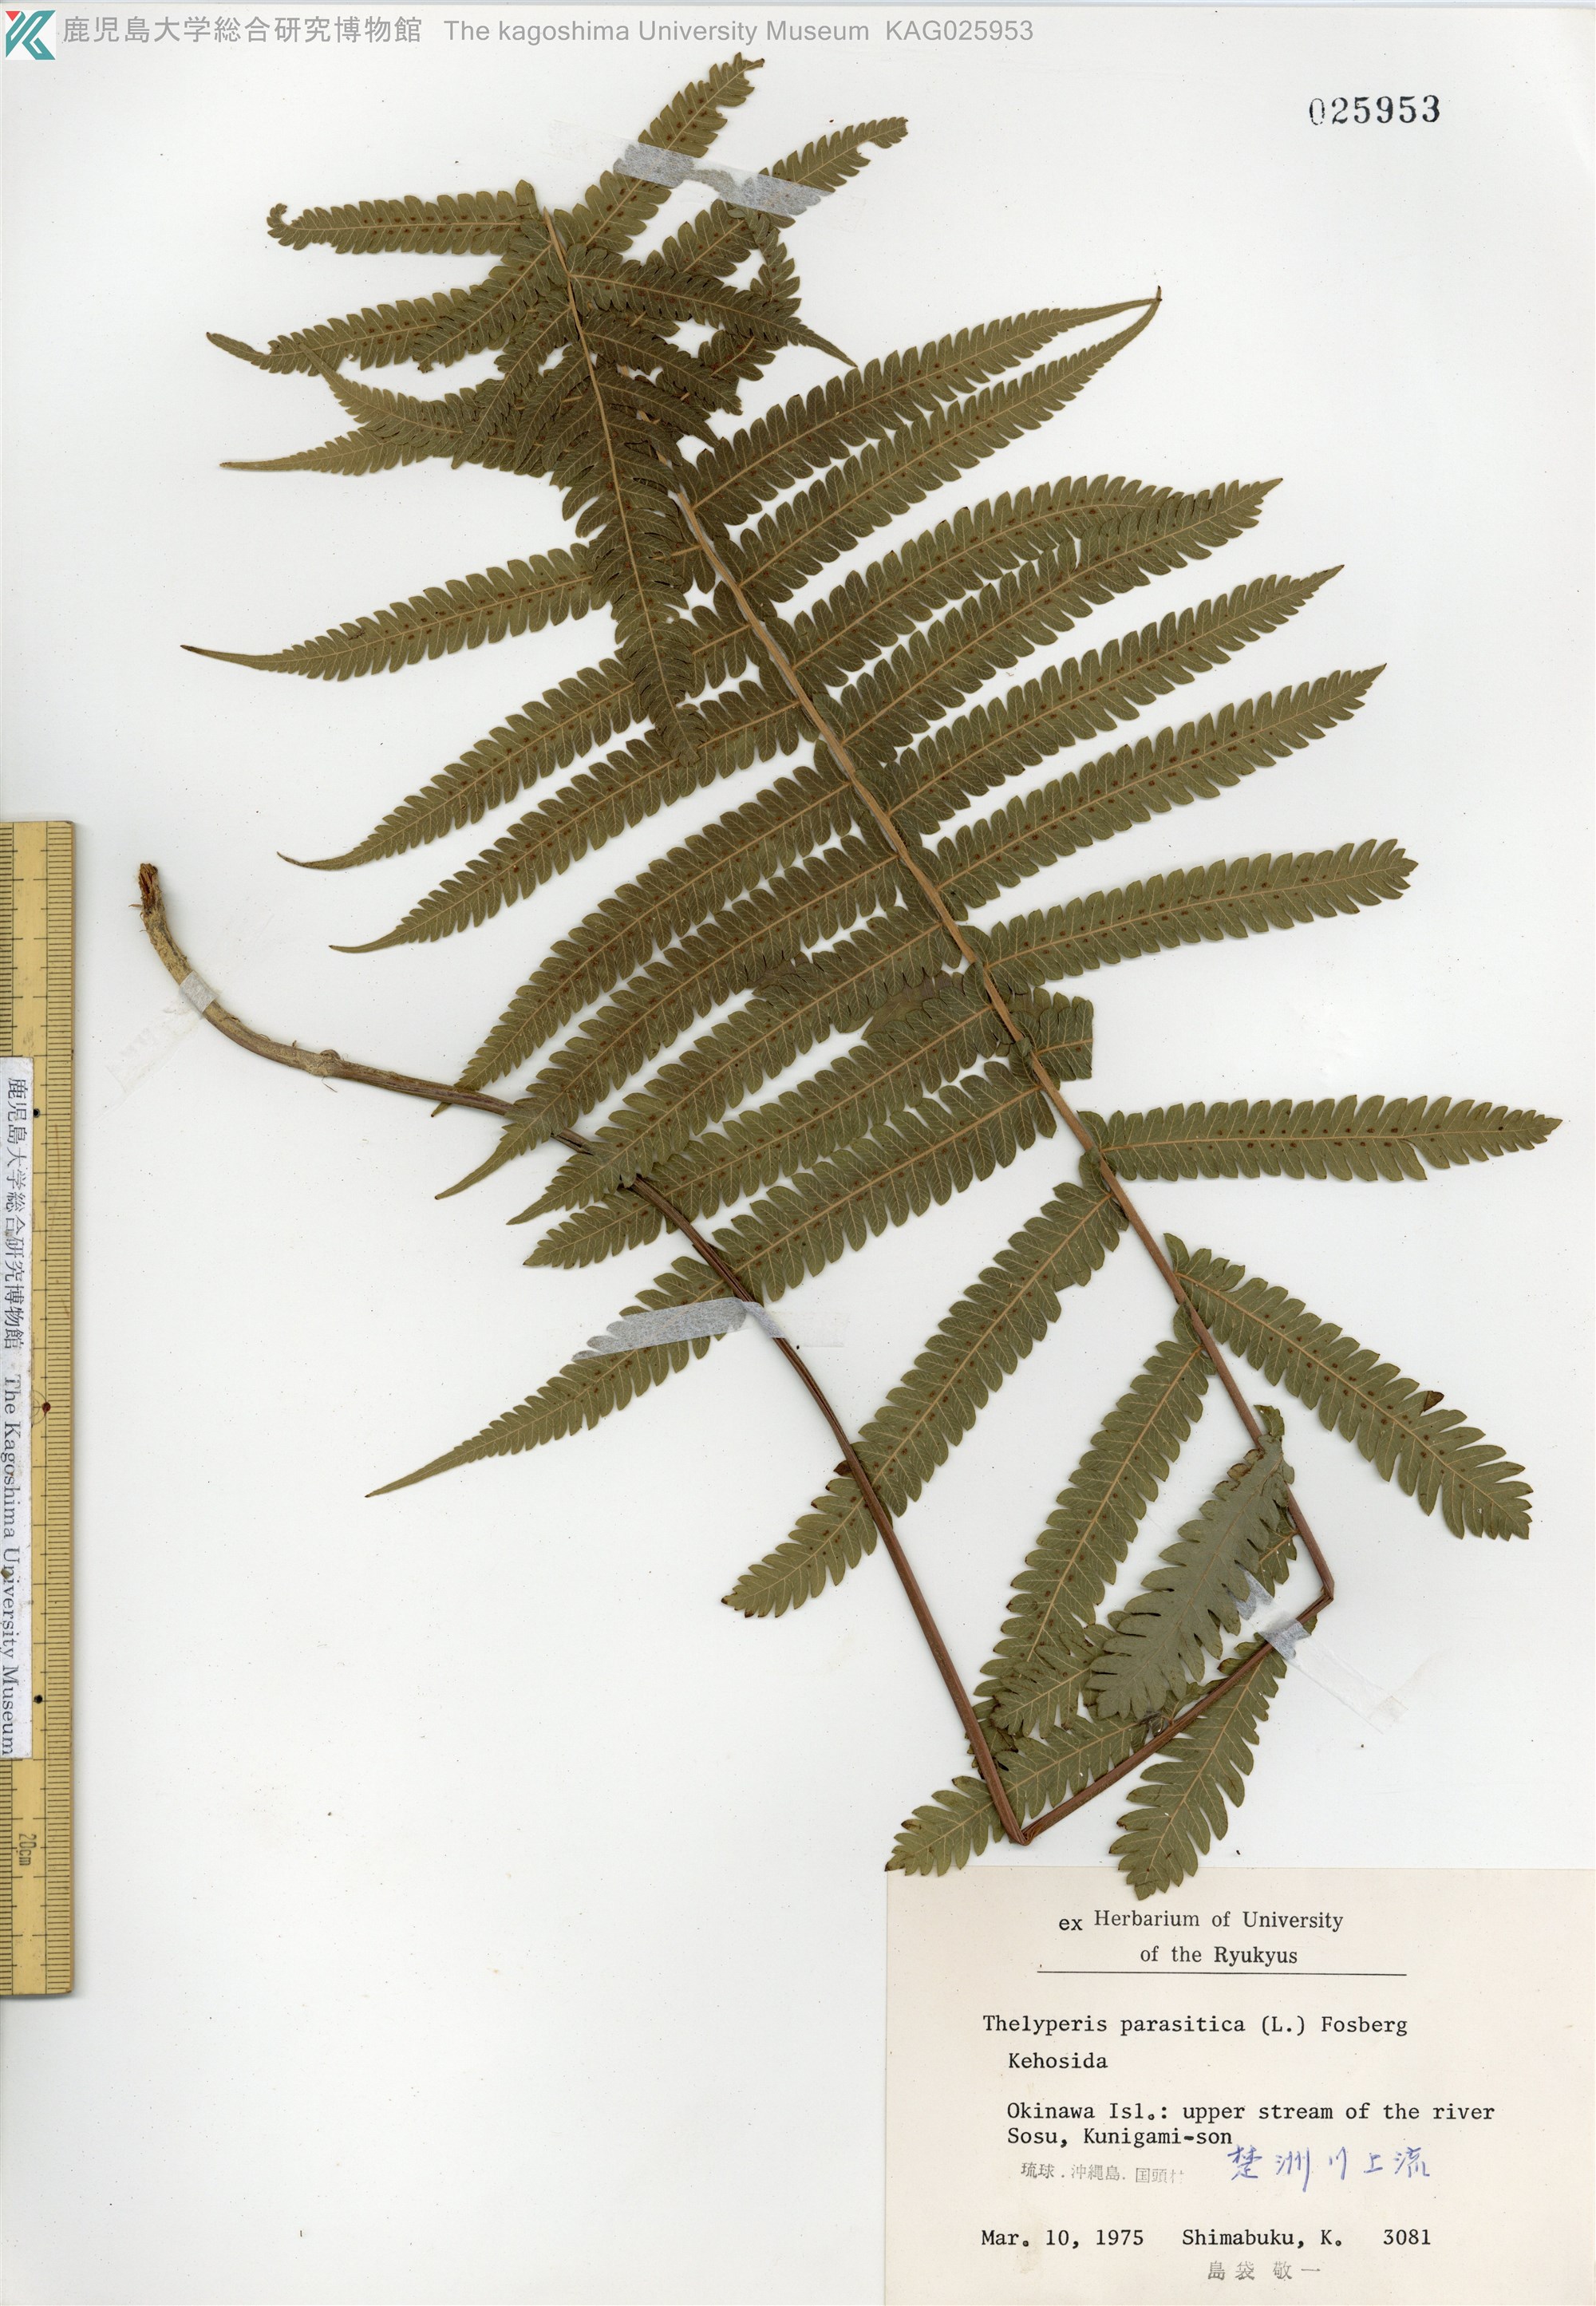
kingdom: Plantae
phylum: Tracheophyta
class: Polypodiopsida
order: Polypodiales
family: Thelypteridaceae
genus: Christella
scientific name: Christella parasitica
